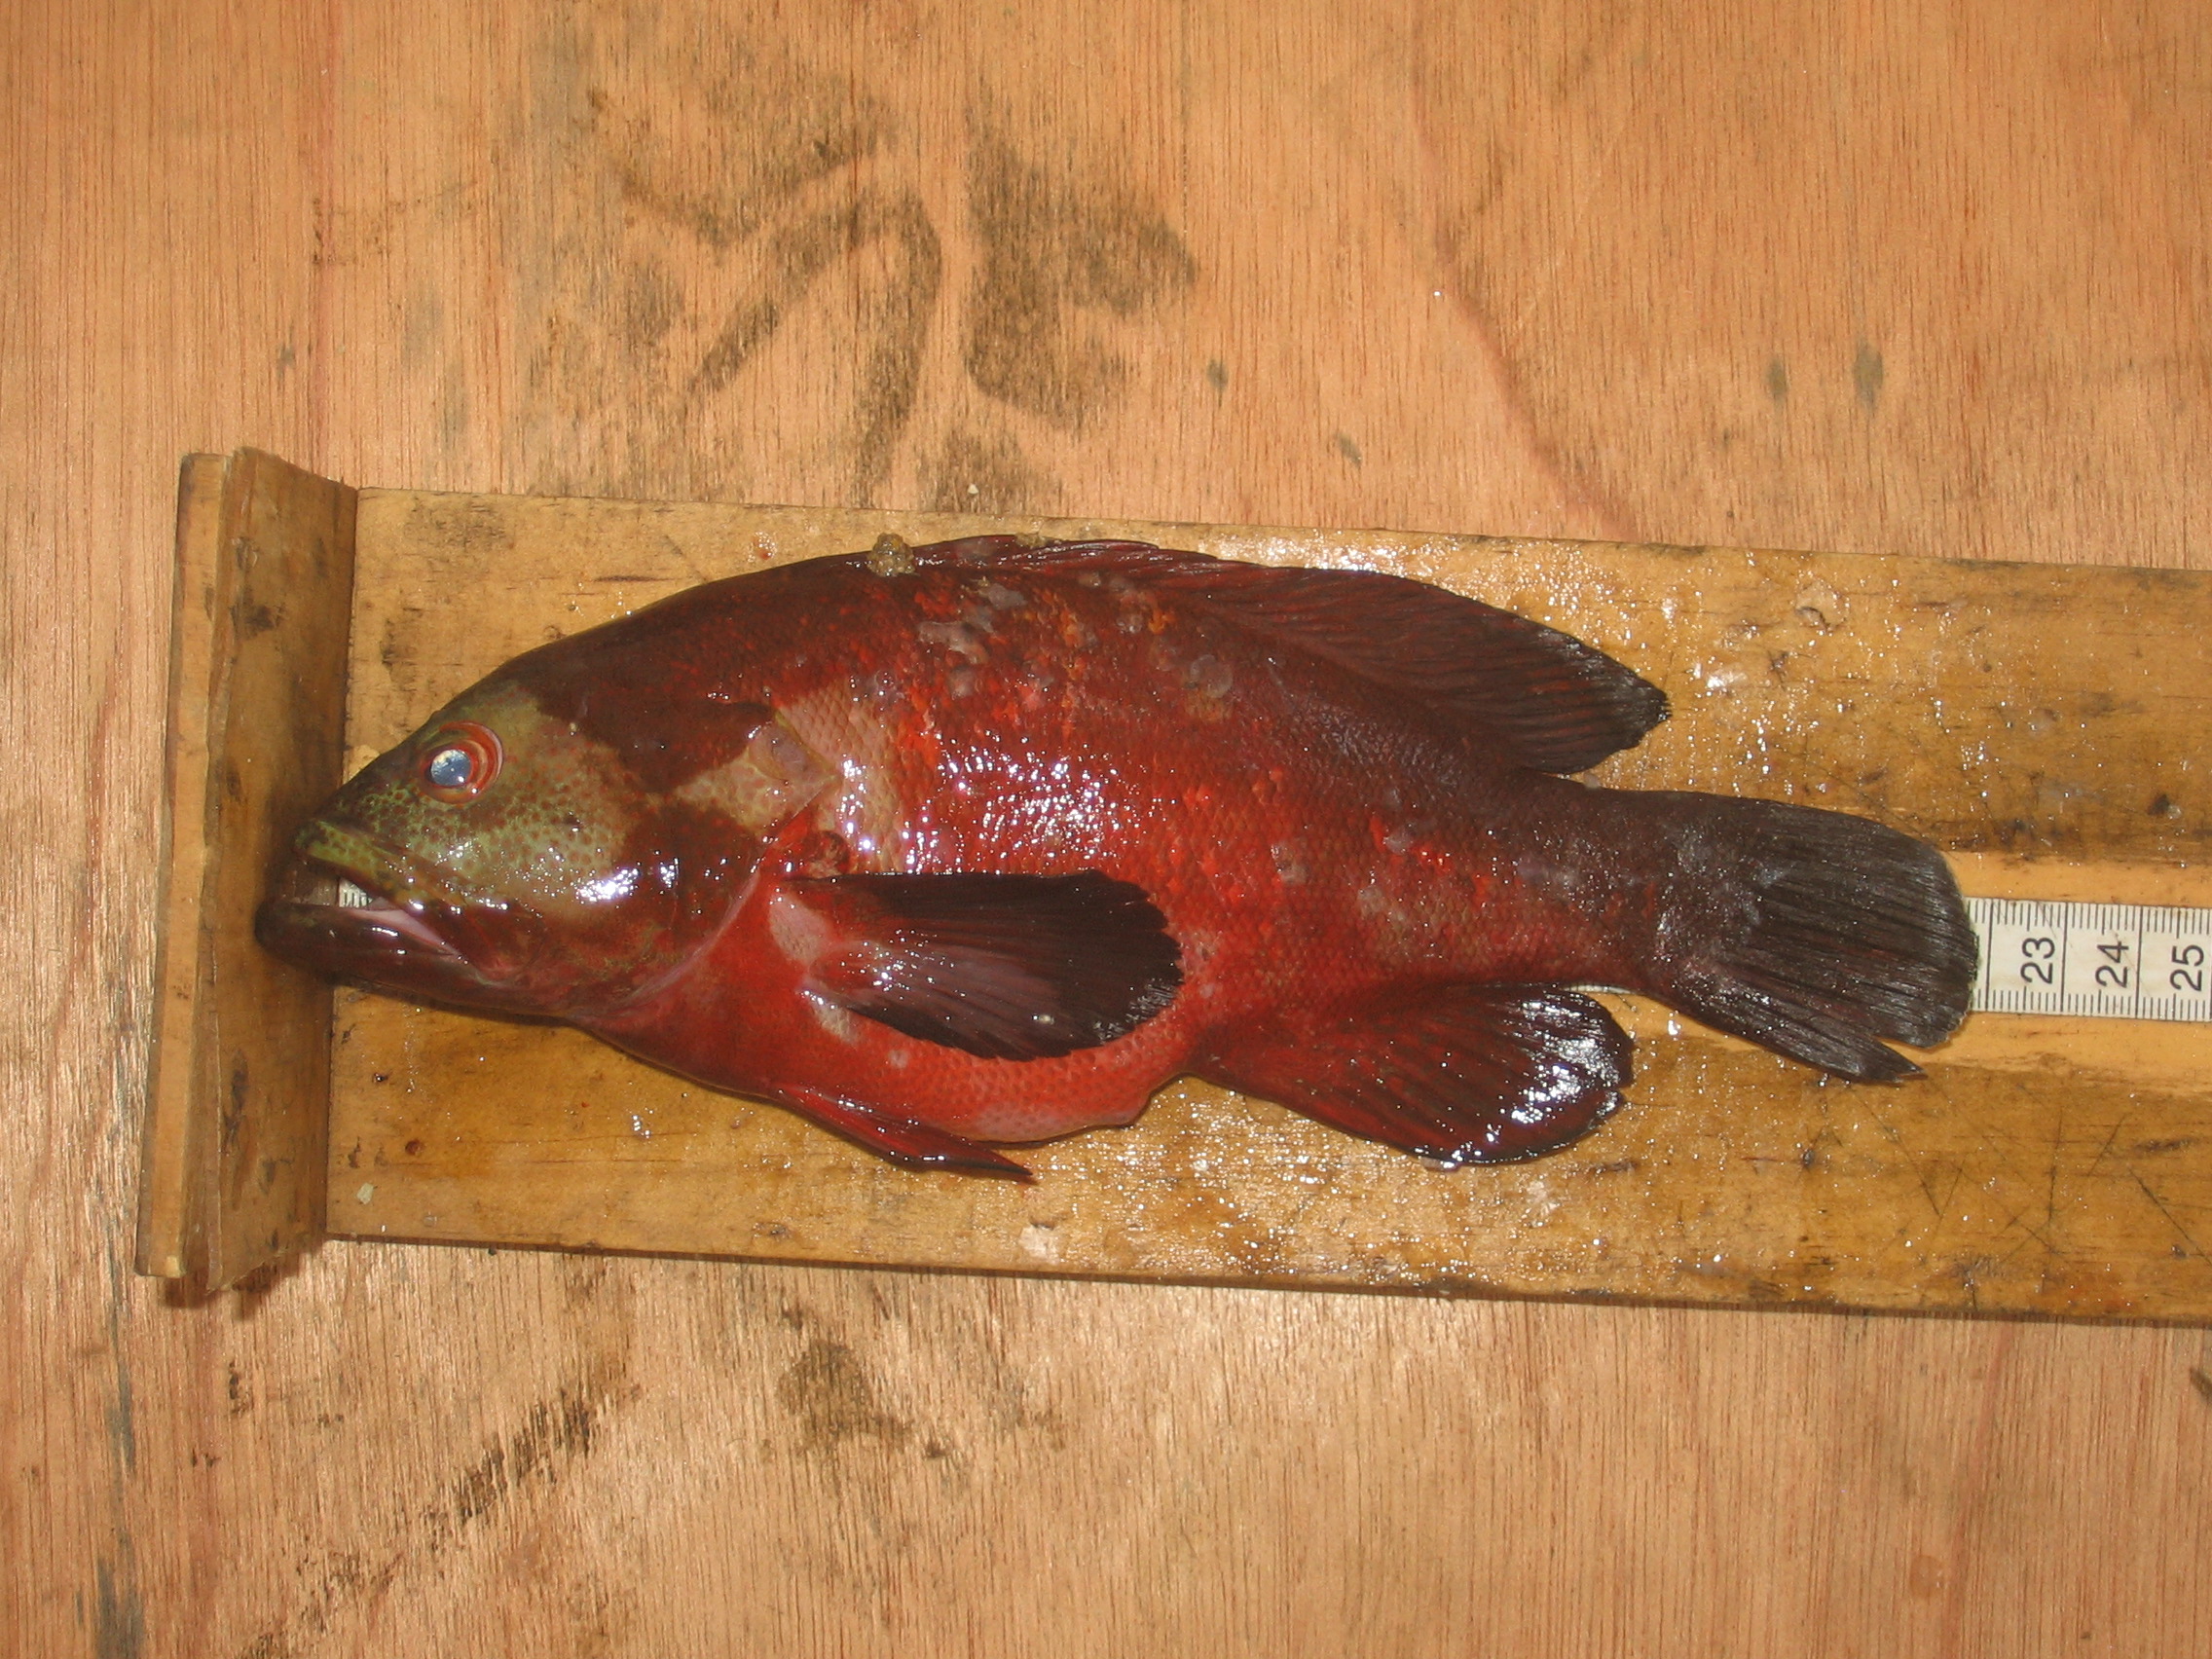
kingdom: Animalia
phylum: Chordata
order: Perciformes
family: Serranidae
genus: Cephalopholis
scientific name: Cephalopholis nigripinnis
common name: Duskyfin hind
